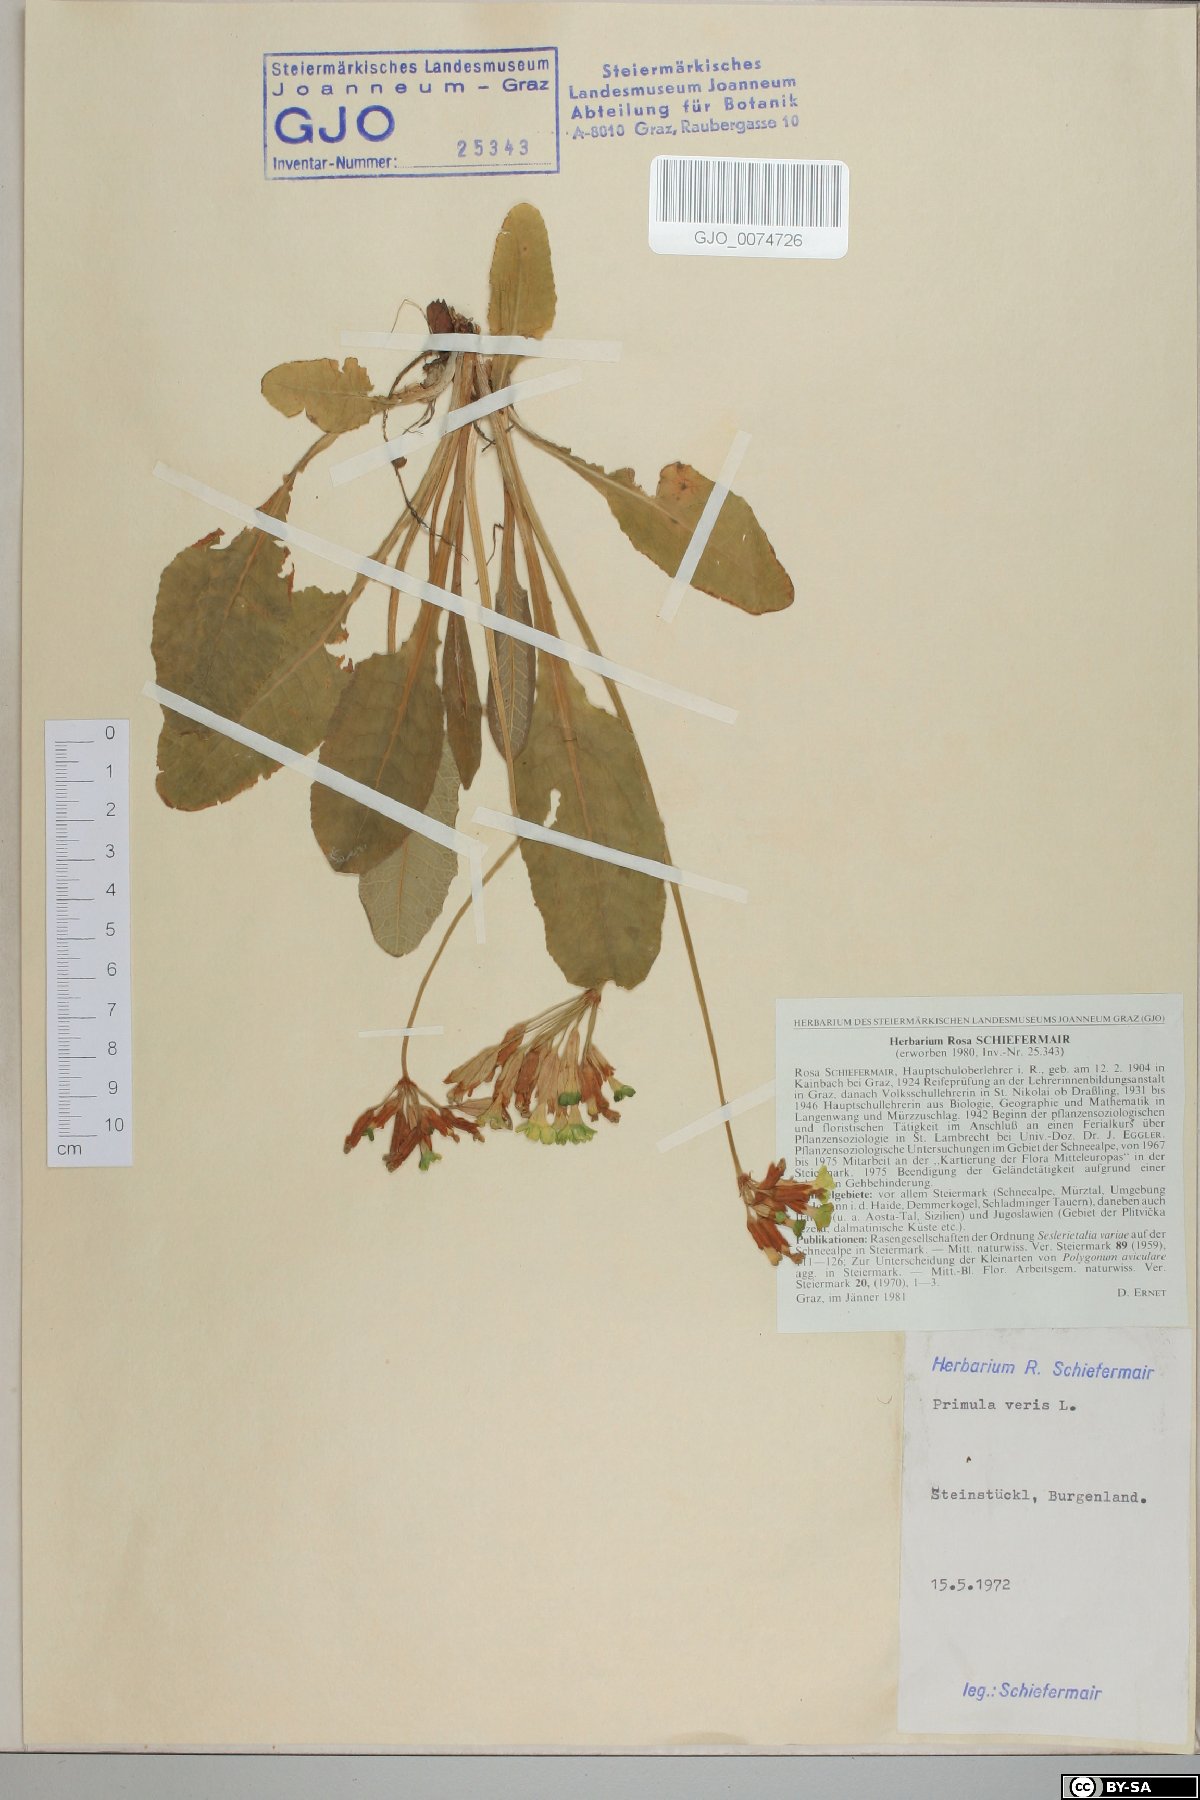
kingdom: Plantae
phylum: Tracheophyta
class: Magnoliopsida
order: Ericales
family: Primulaceae
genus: Primula
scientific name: Primula veris
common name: Cowslip
